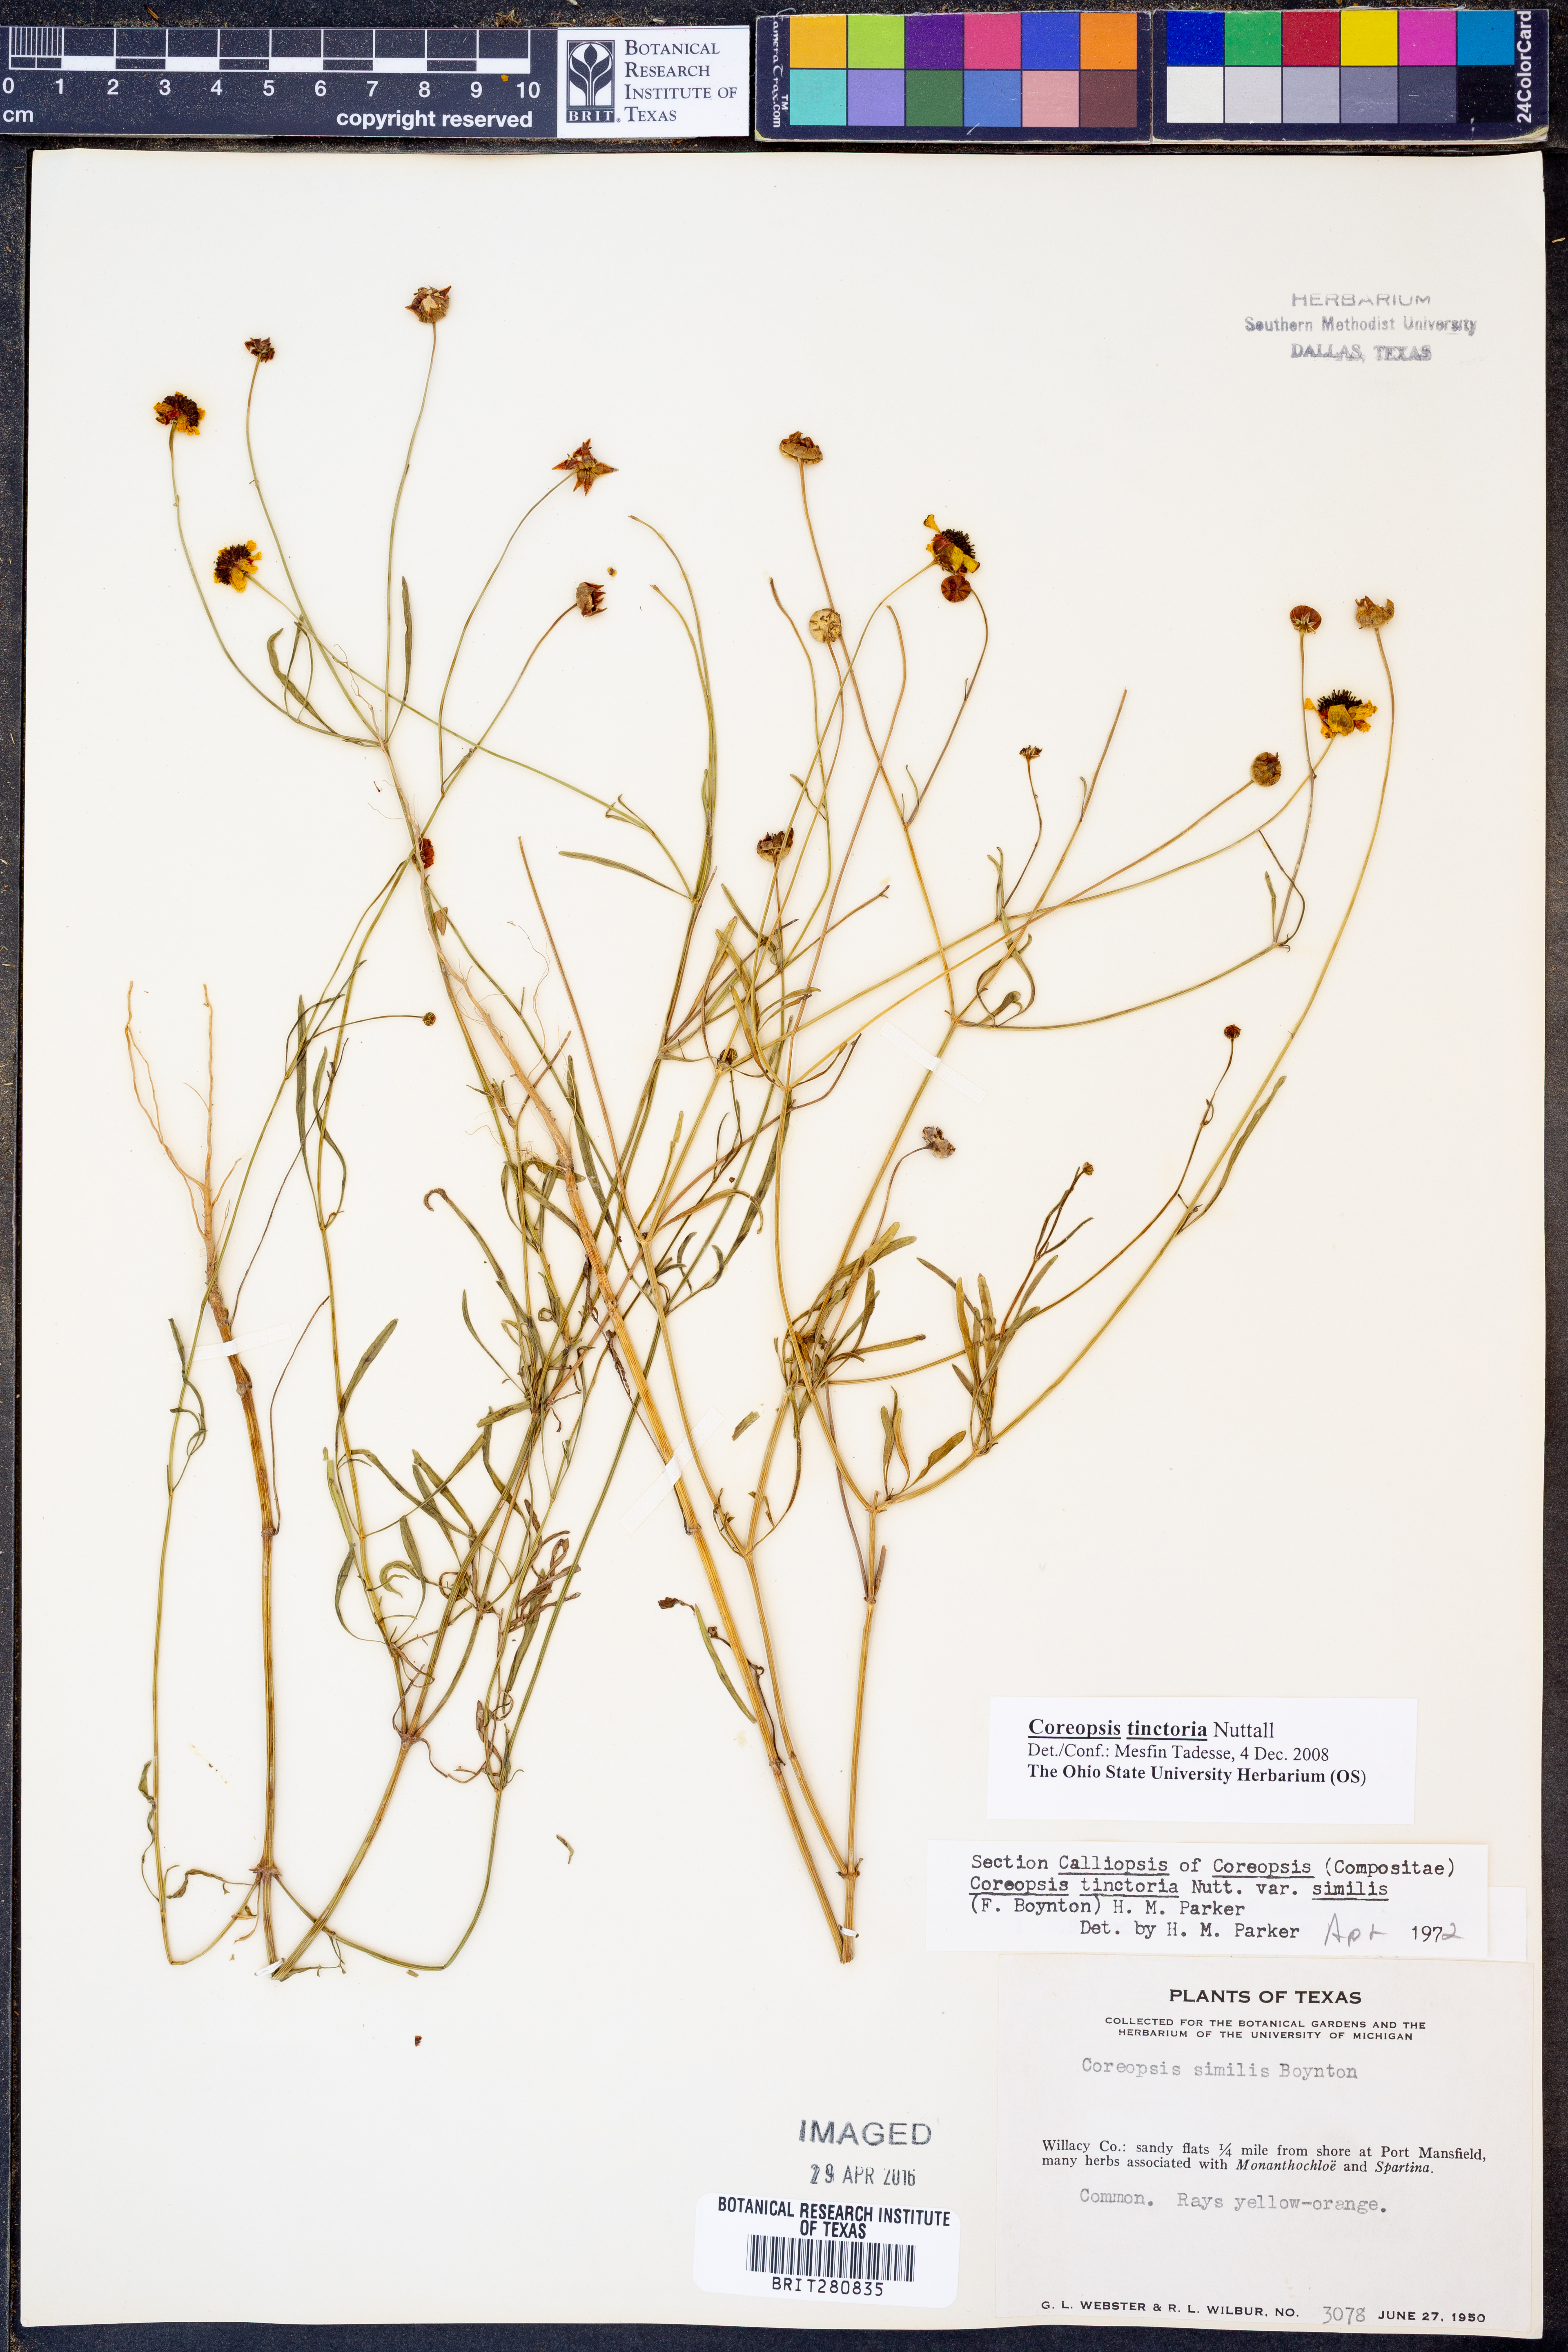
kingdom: Plantae
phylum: Tracheophyta
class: Magnoliopsida
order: Asterales
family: Asteraceae
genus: Coreopsis
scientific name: Coreopsis tinctoria
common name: Garden tickseed
